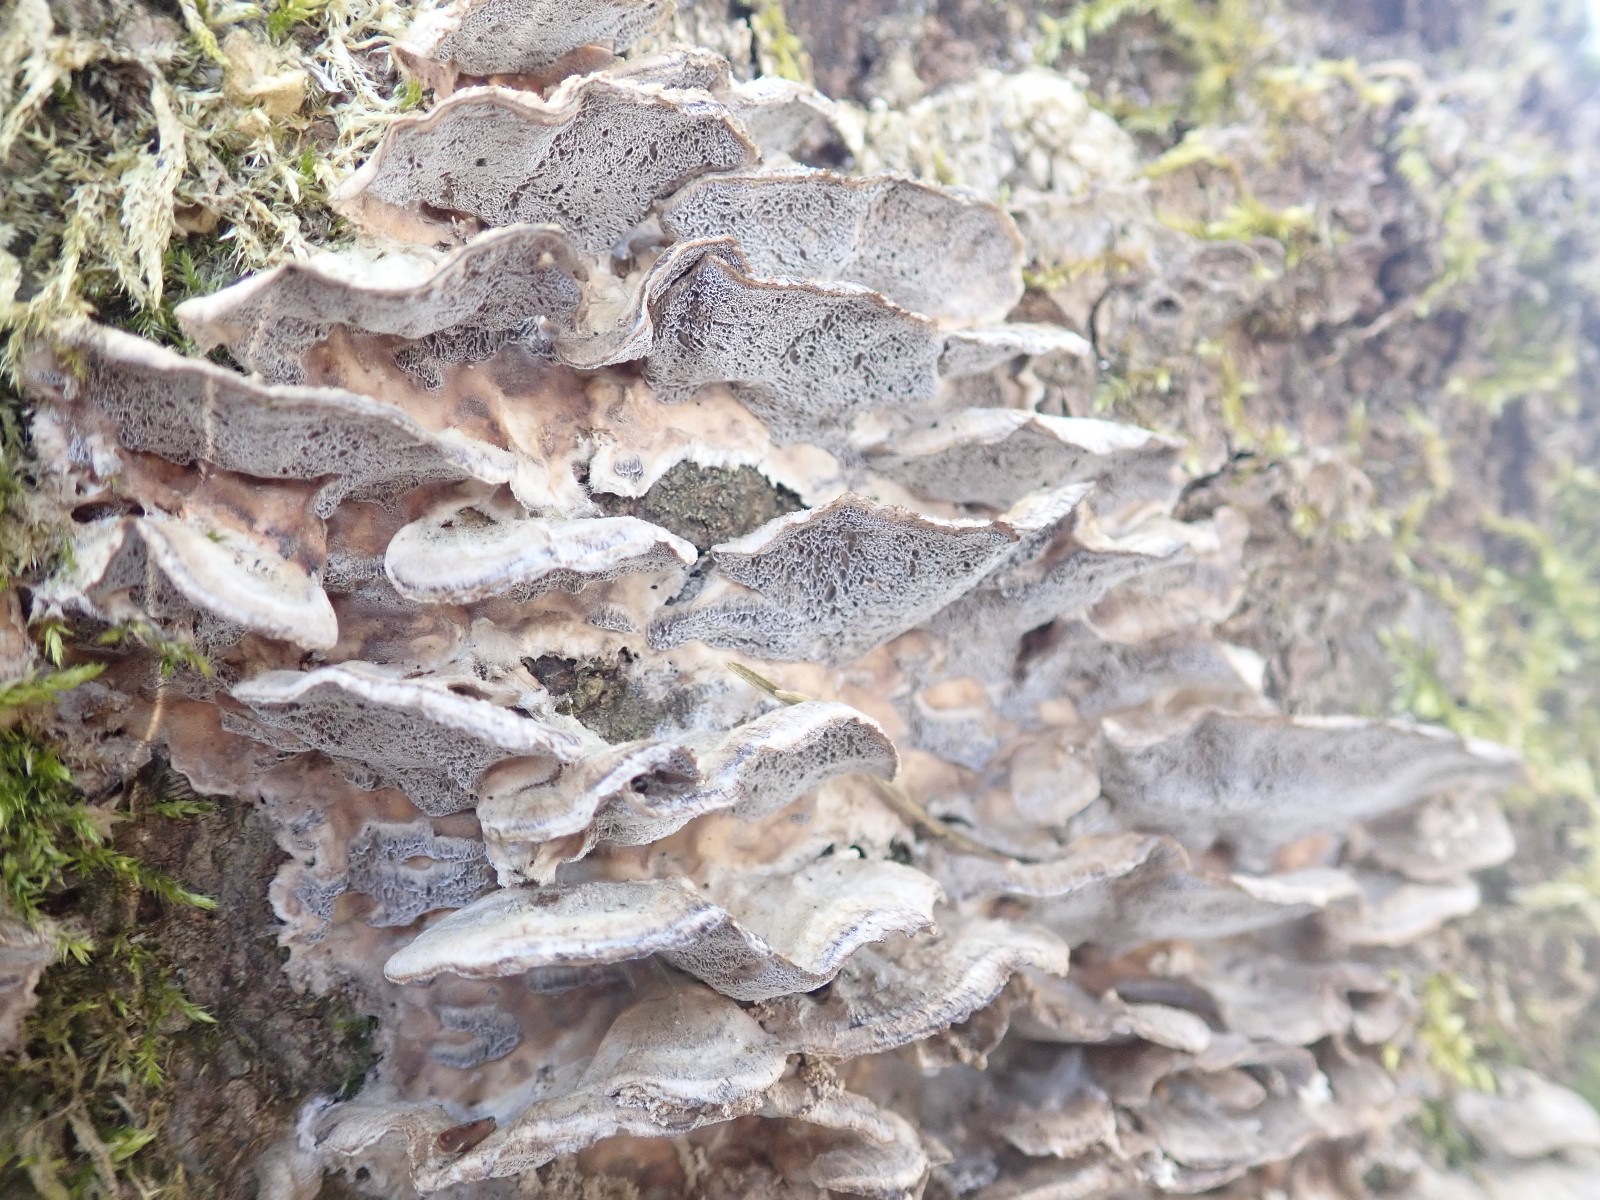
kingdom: Fungi
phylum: Basidiomycota
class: Agaricomycetes
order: Polyporales
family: Phanerochaetaceae
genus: Bjerkandera
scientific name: Bjerkandera adusta
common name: sveden sodporesvamp
